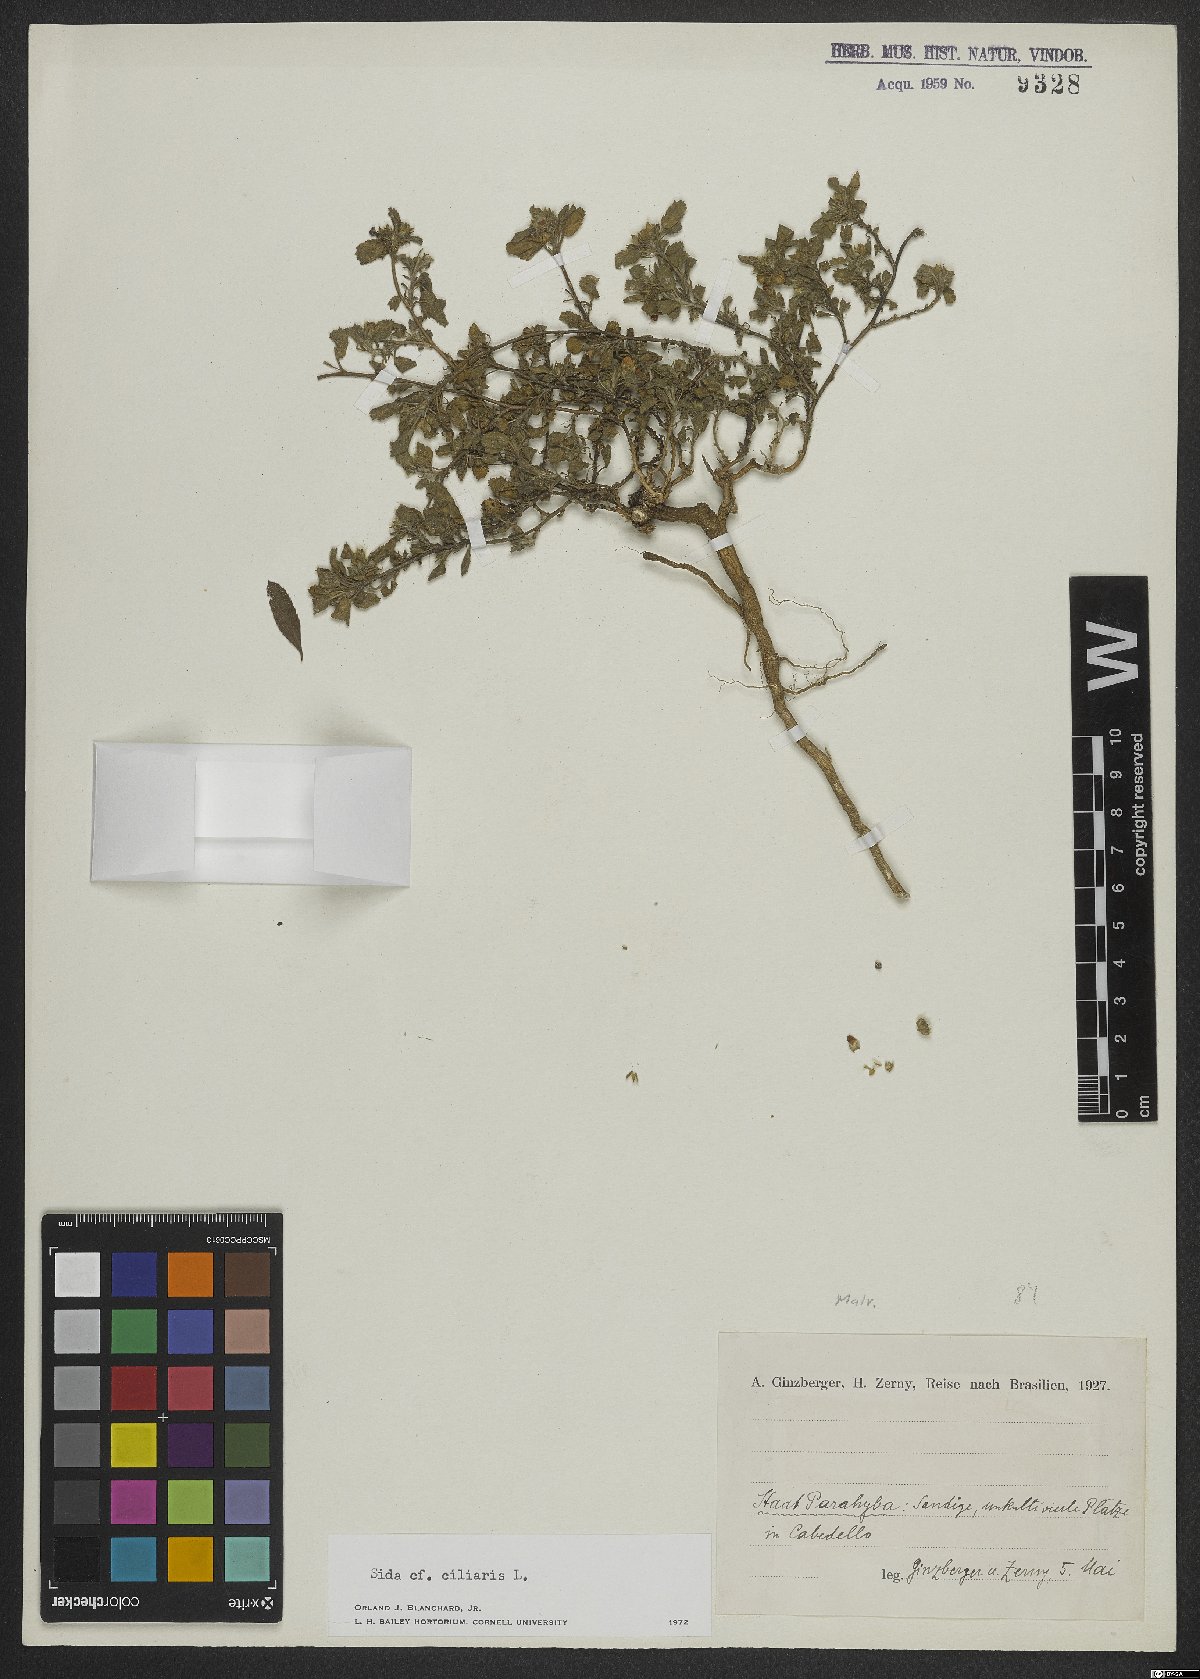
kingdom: Plantae
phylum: Tracheophyta
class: Magnoliopsida
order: Malvales
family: Malvaceae
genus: Sida
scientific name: Sida ciliaris
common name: Bracted fanpetals
